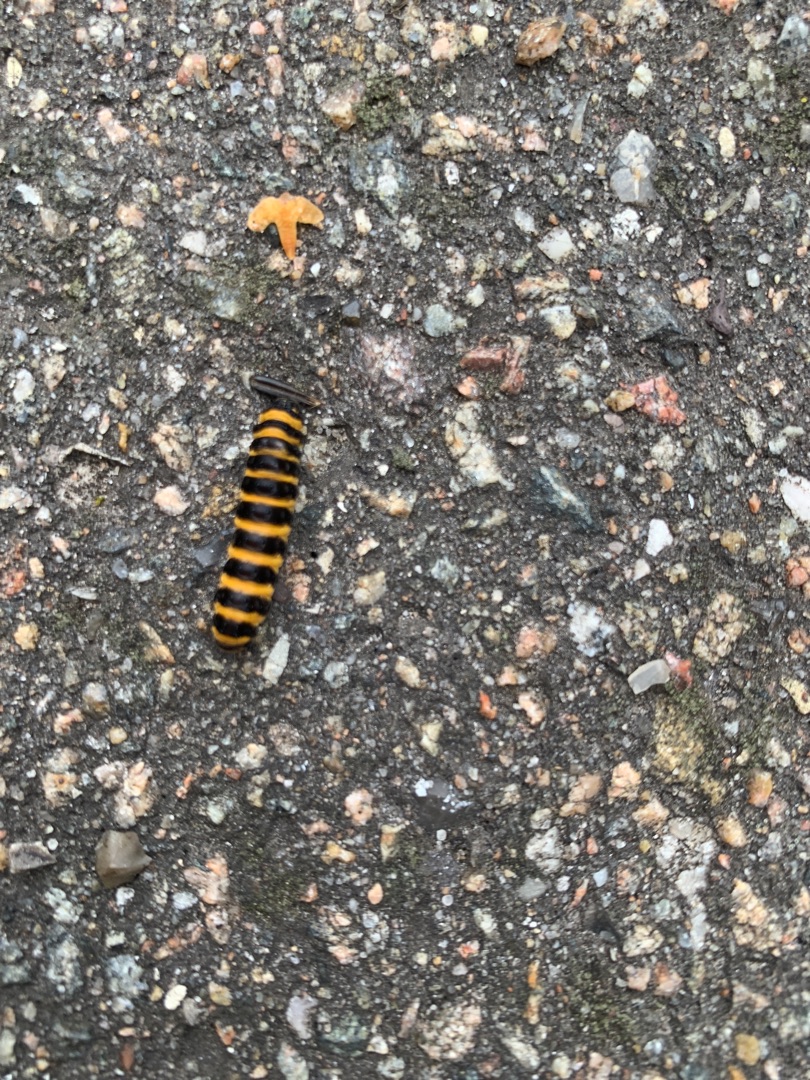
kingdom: Animalia
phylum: Arthropoda
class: Insecta
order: Lepidoptera
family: Erebidae
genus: Tyria
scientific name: Tyria jacobaeae
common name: Blodplet
